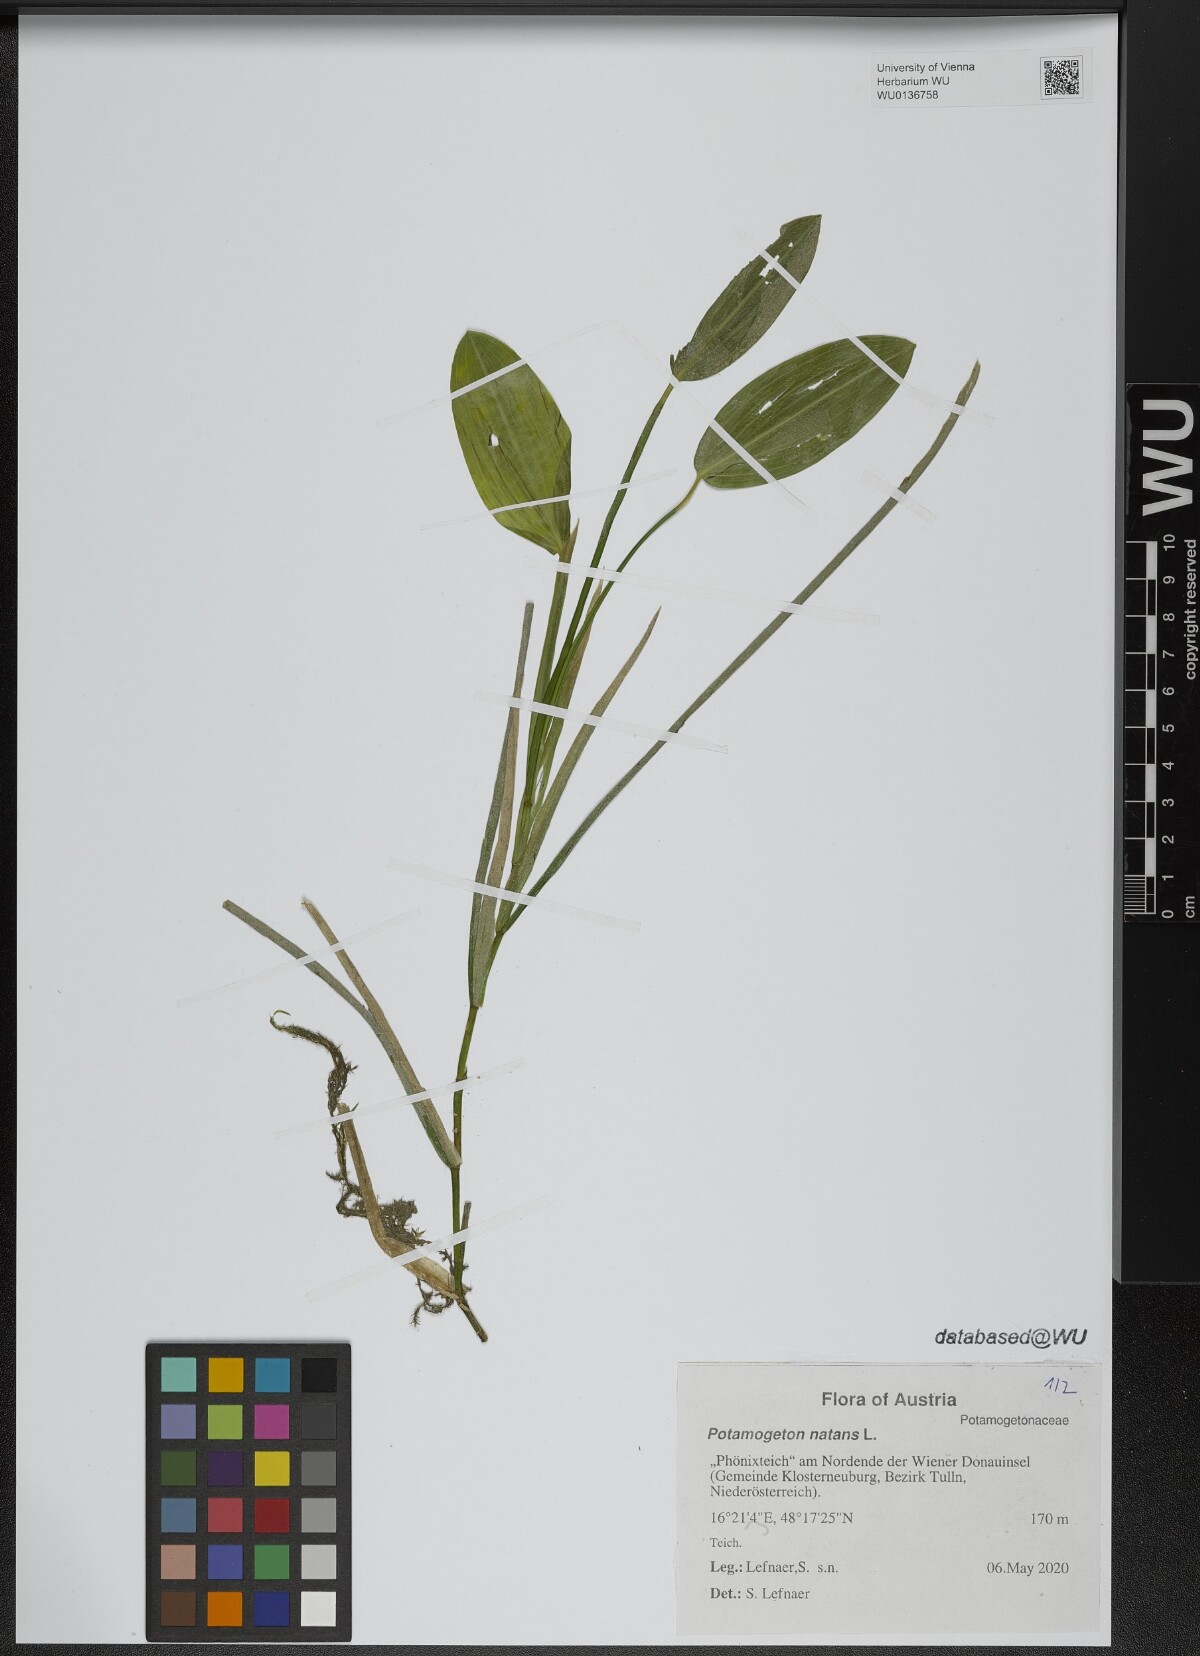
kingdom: Plantae
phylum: Tracheophyta
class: Liliopsida
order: Alismatales
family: Potamogetonaceae
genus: Potamogeton
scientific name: Potamogeton natans
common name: Broad-leaved pondweed
